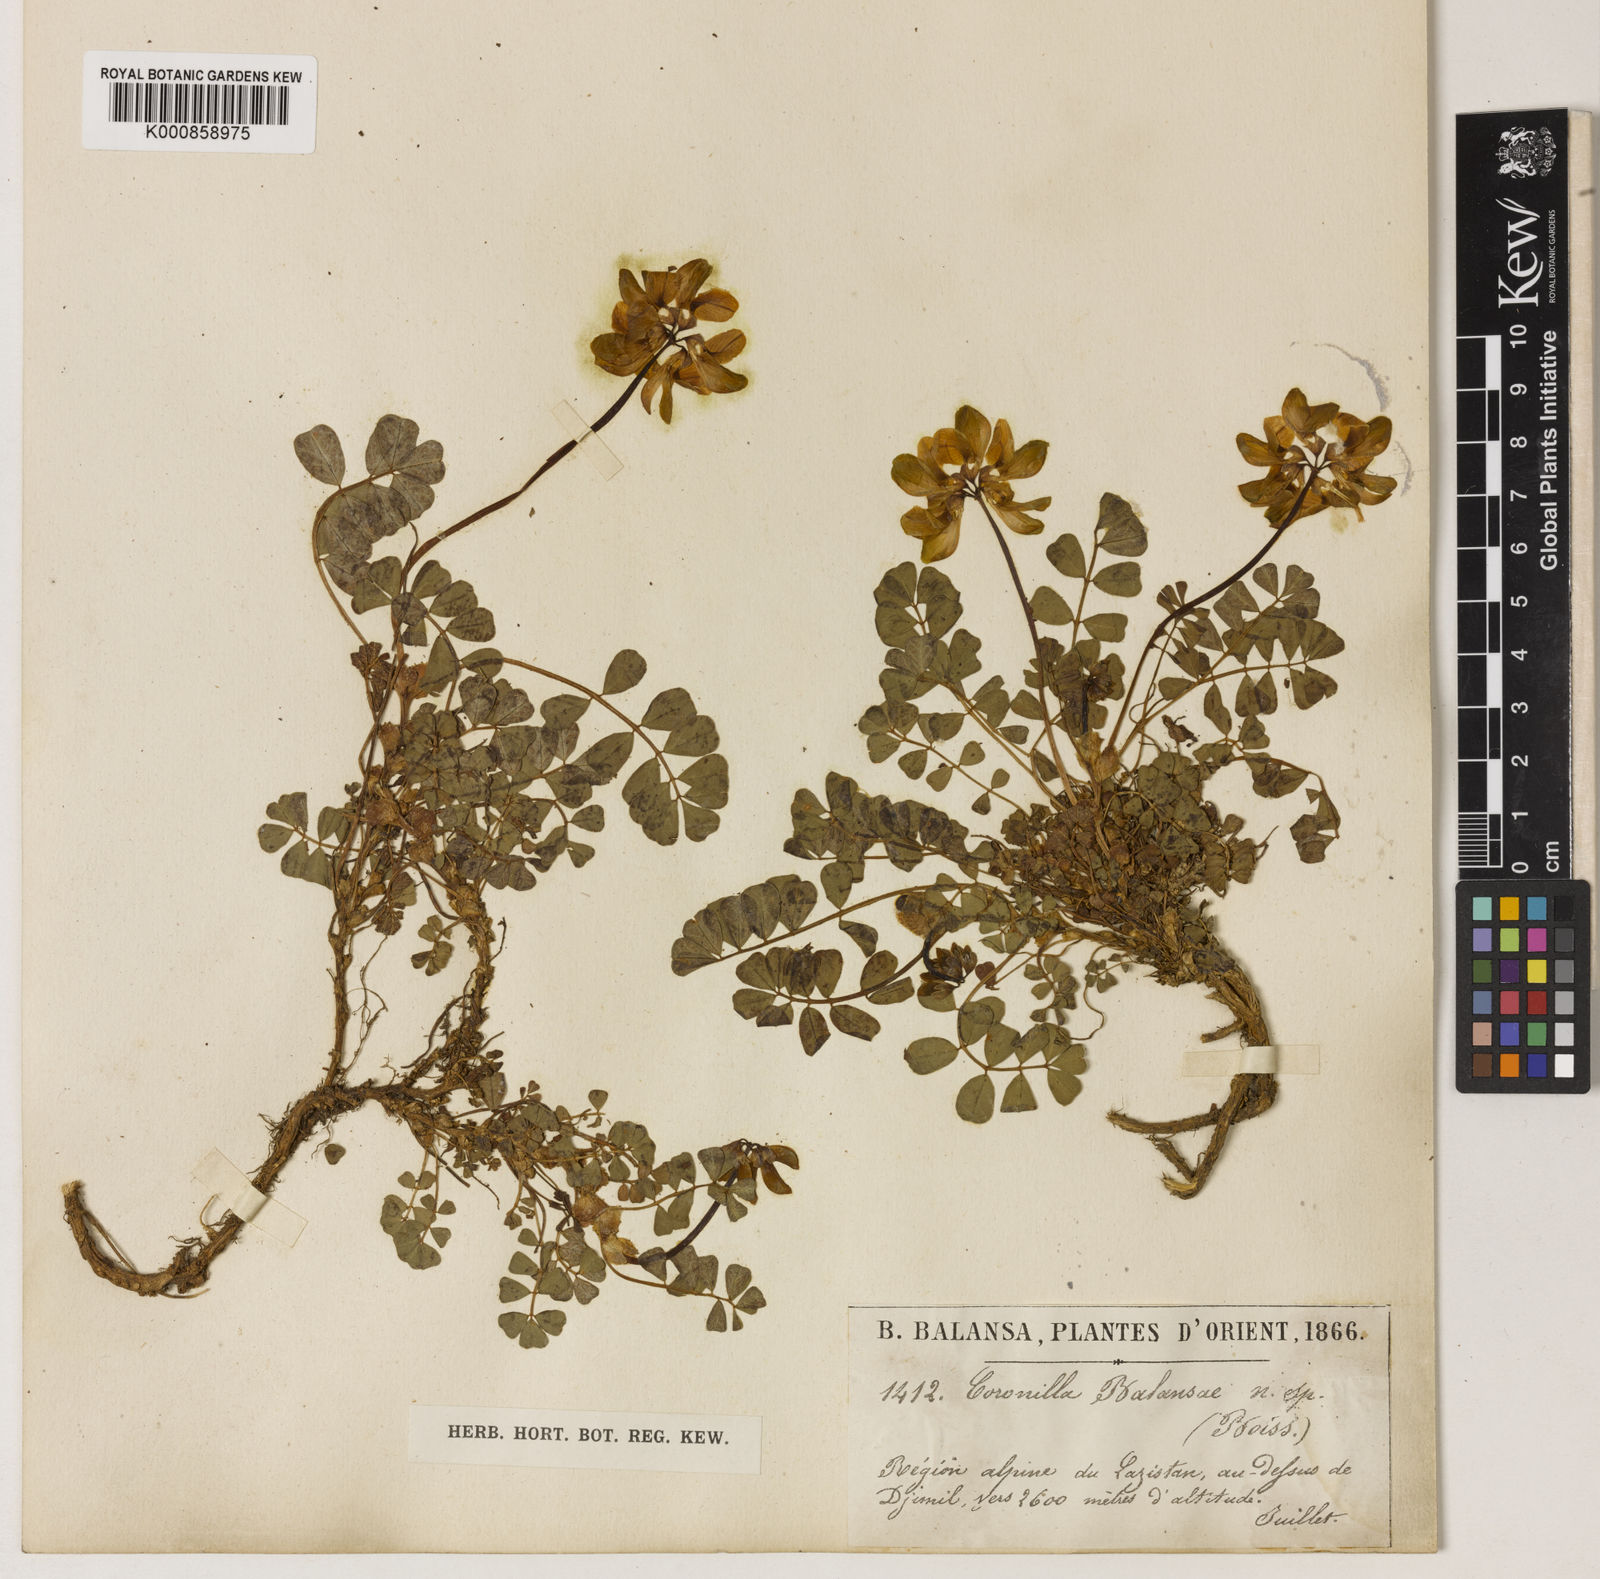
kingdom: Plantae
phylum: Tracheophyta
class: Magnoliopsida
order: Fabales
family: Fabaceae
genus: Coronilla
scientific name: Coronilla balansae
